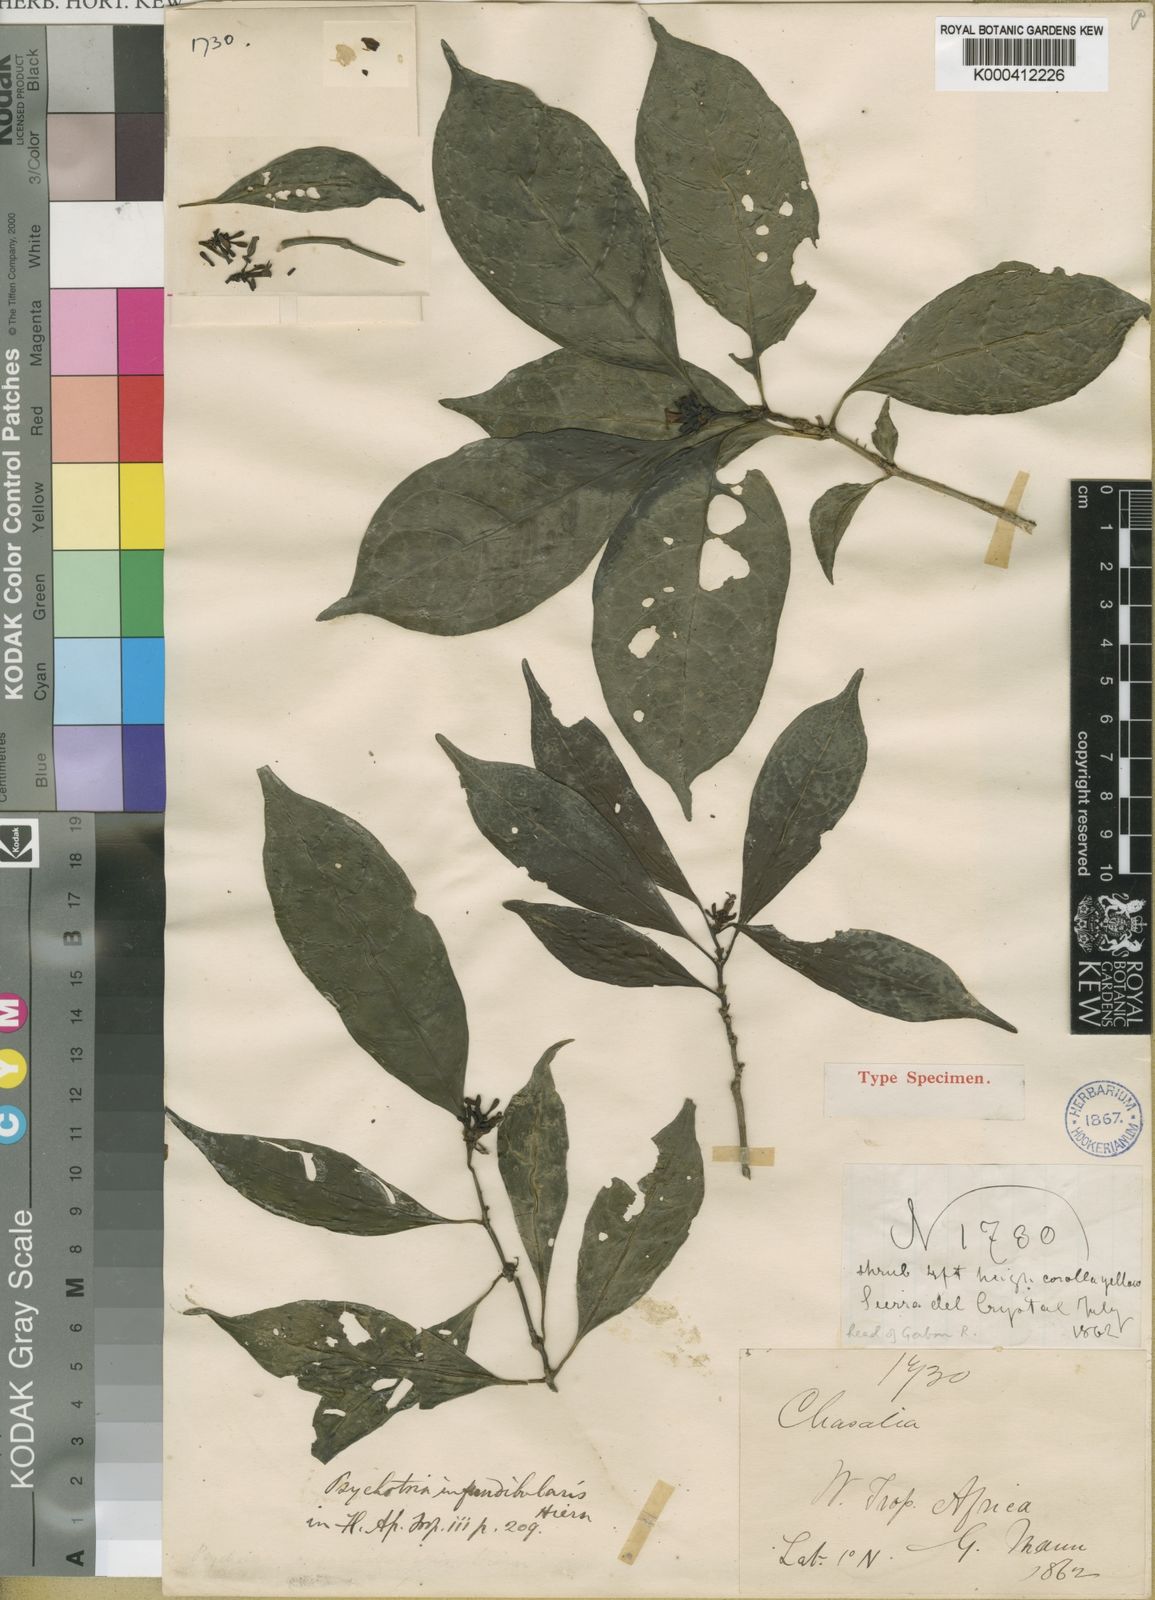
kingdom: Plantae
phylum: Tracheophyta
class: Magnoliopsida
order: Gentianales
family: Rubiaceae
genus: Psychotria
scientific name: Psychotria infundibularis
